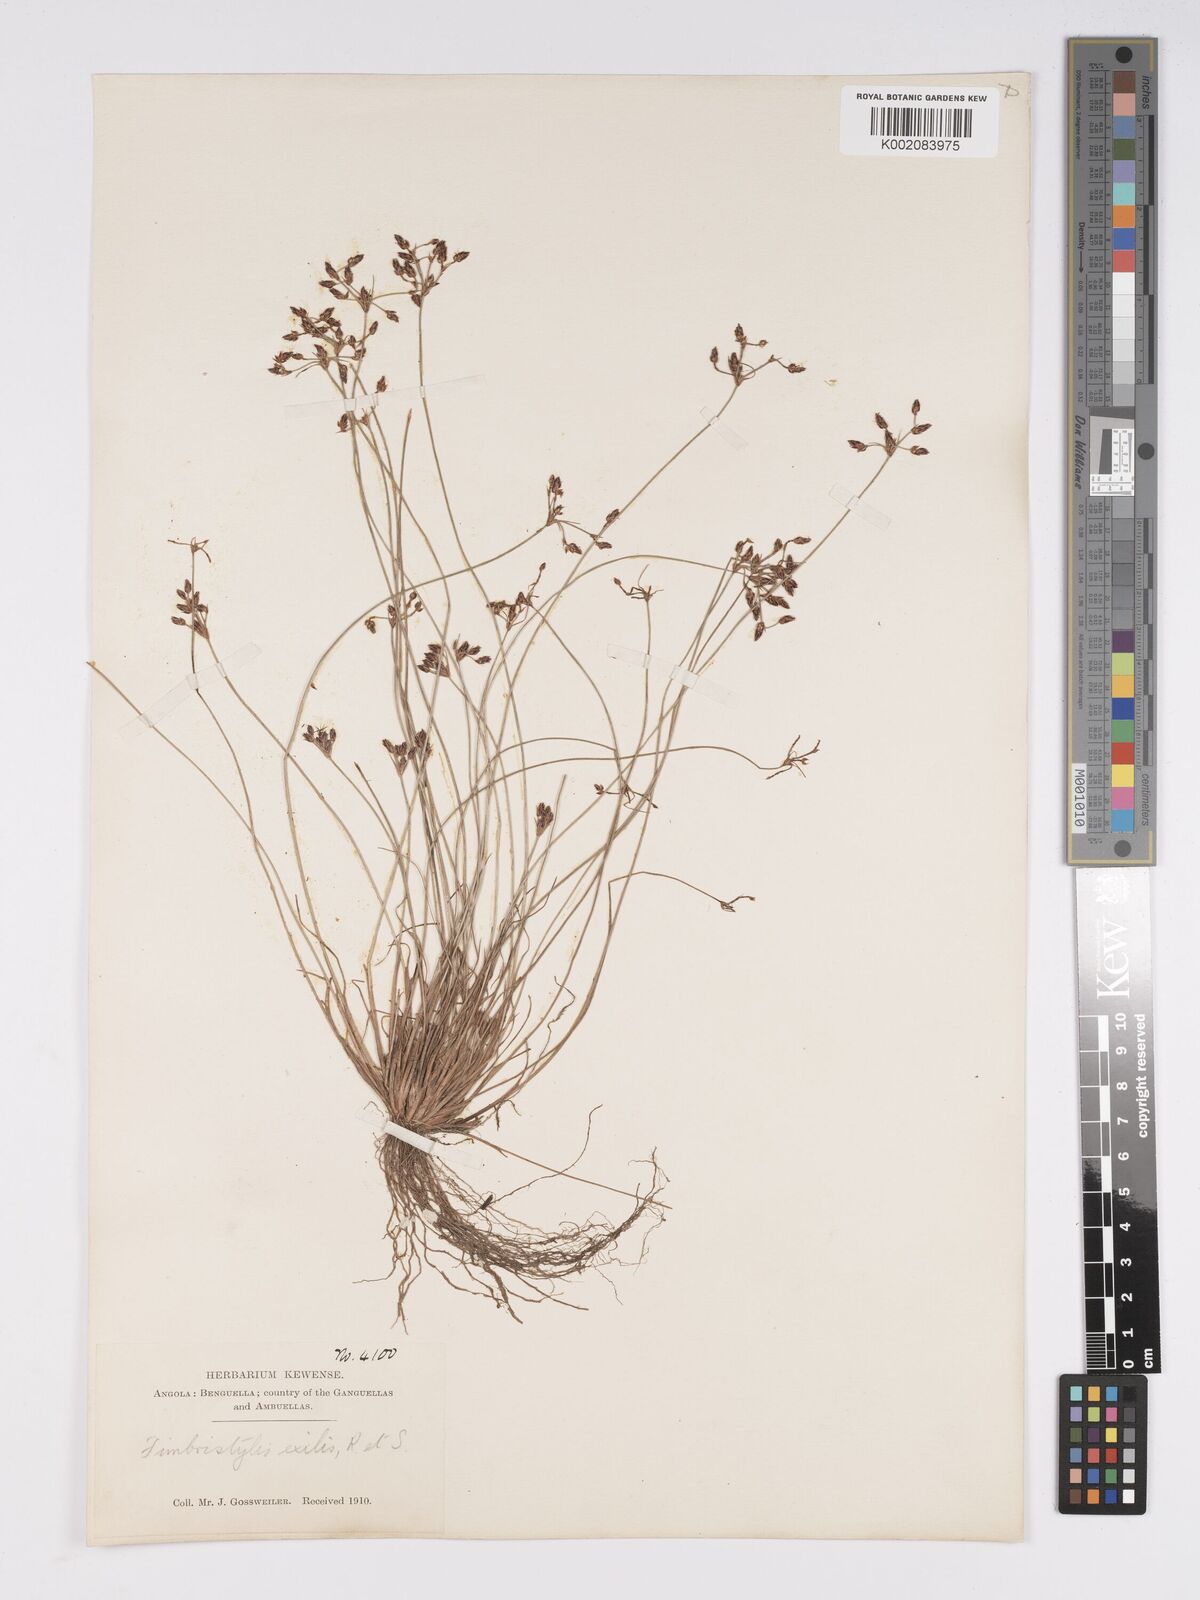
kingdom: Plantae
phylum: Tracheophyta
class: Liliopsida
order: Poales
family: Cyperaceae
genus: Bulbostylis
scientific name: Bulbostylis hispidula
